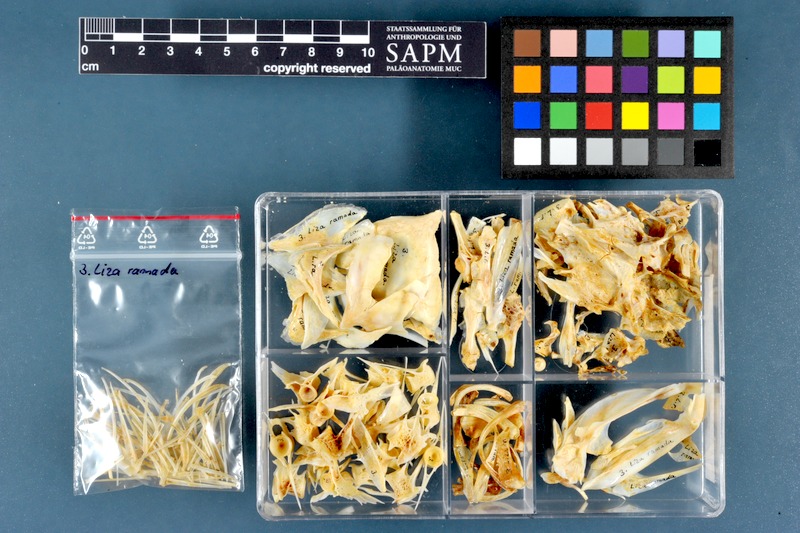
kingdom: Animalia
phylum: Chordata
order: Mugiliformes
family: Mugilidae
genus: Chelon
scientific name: Chelon ramada
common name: Thinlip grey mullet
